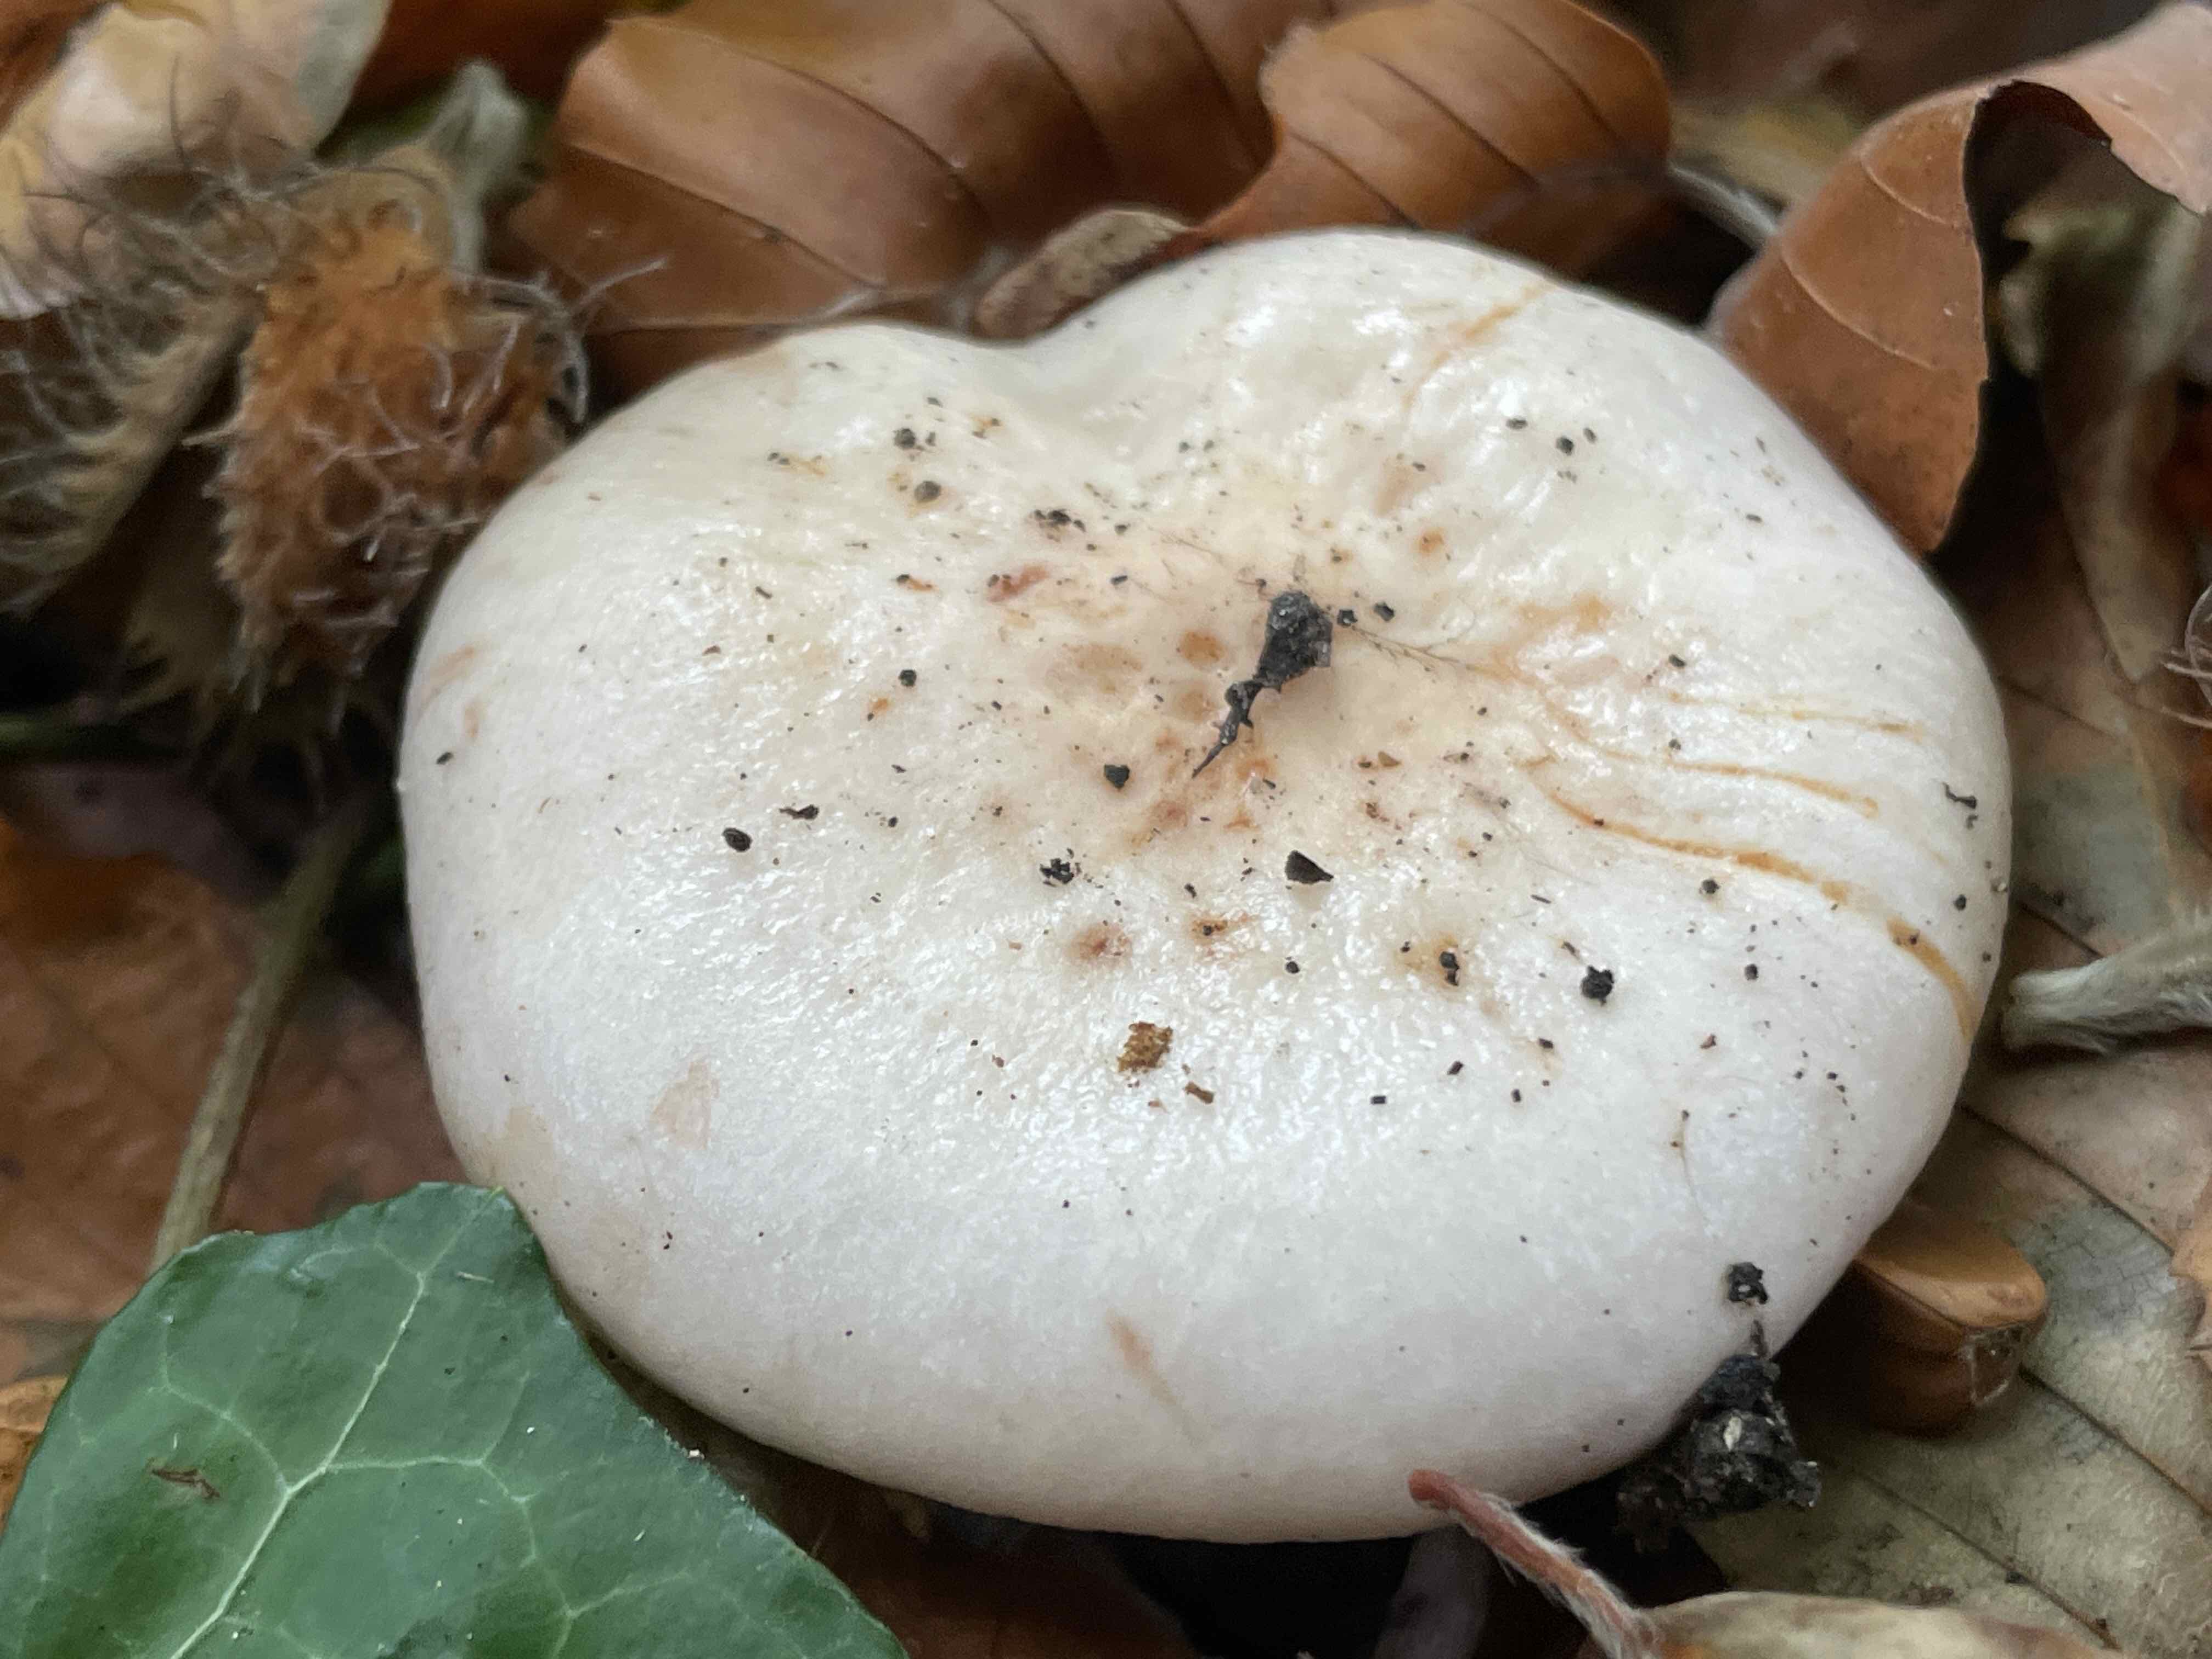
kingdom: Fungi
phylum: Basidiomycota
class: Agaricomycetes
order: Russulales
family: Russulaceae
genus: Lactarius
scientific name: Lactarius pallidus
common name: bleg mælkehat
